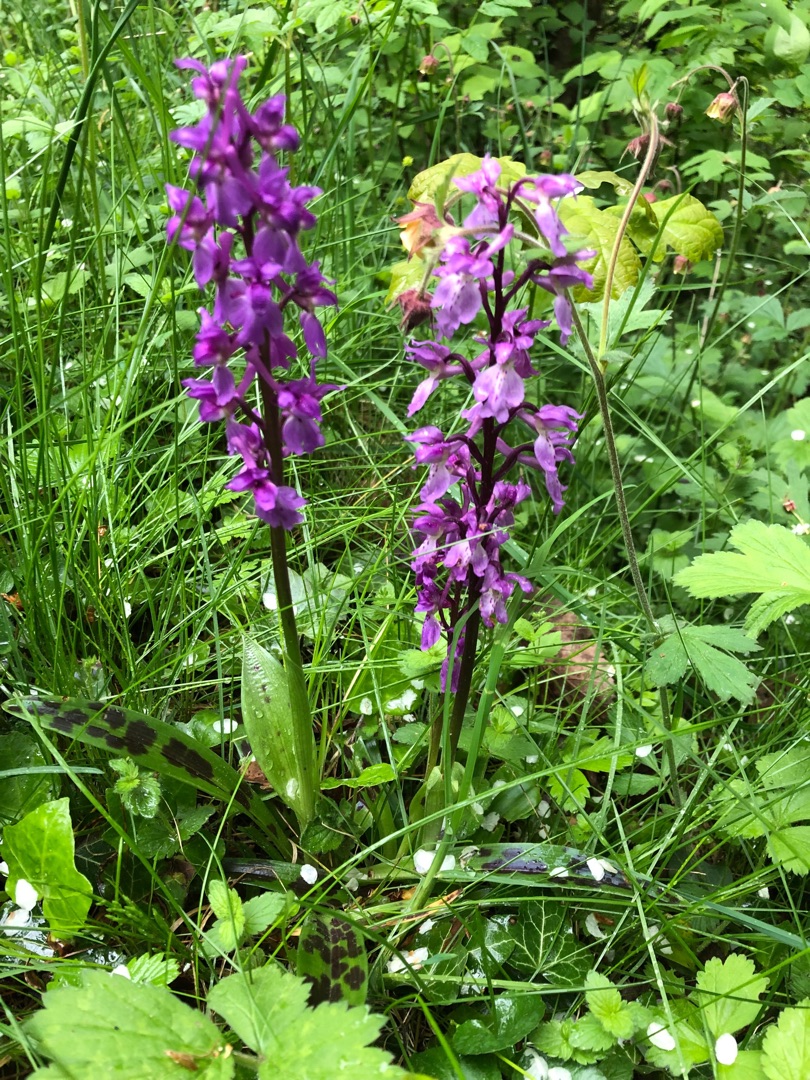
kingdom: Plantae
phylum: Tracheophyta
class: Liliopsida
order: Asparagales
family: Orchidaceae
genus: Orchis
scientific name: Orchis mascula
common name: Tyndakset gøgeurt
